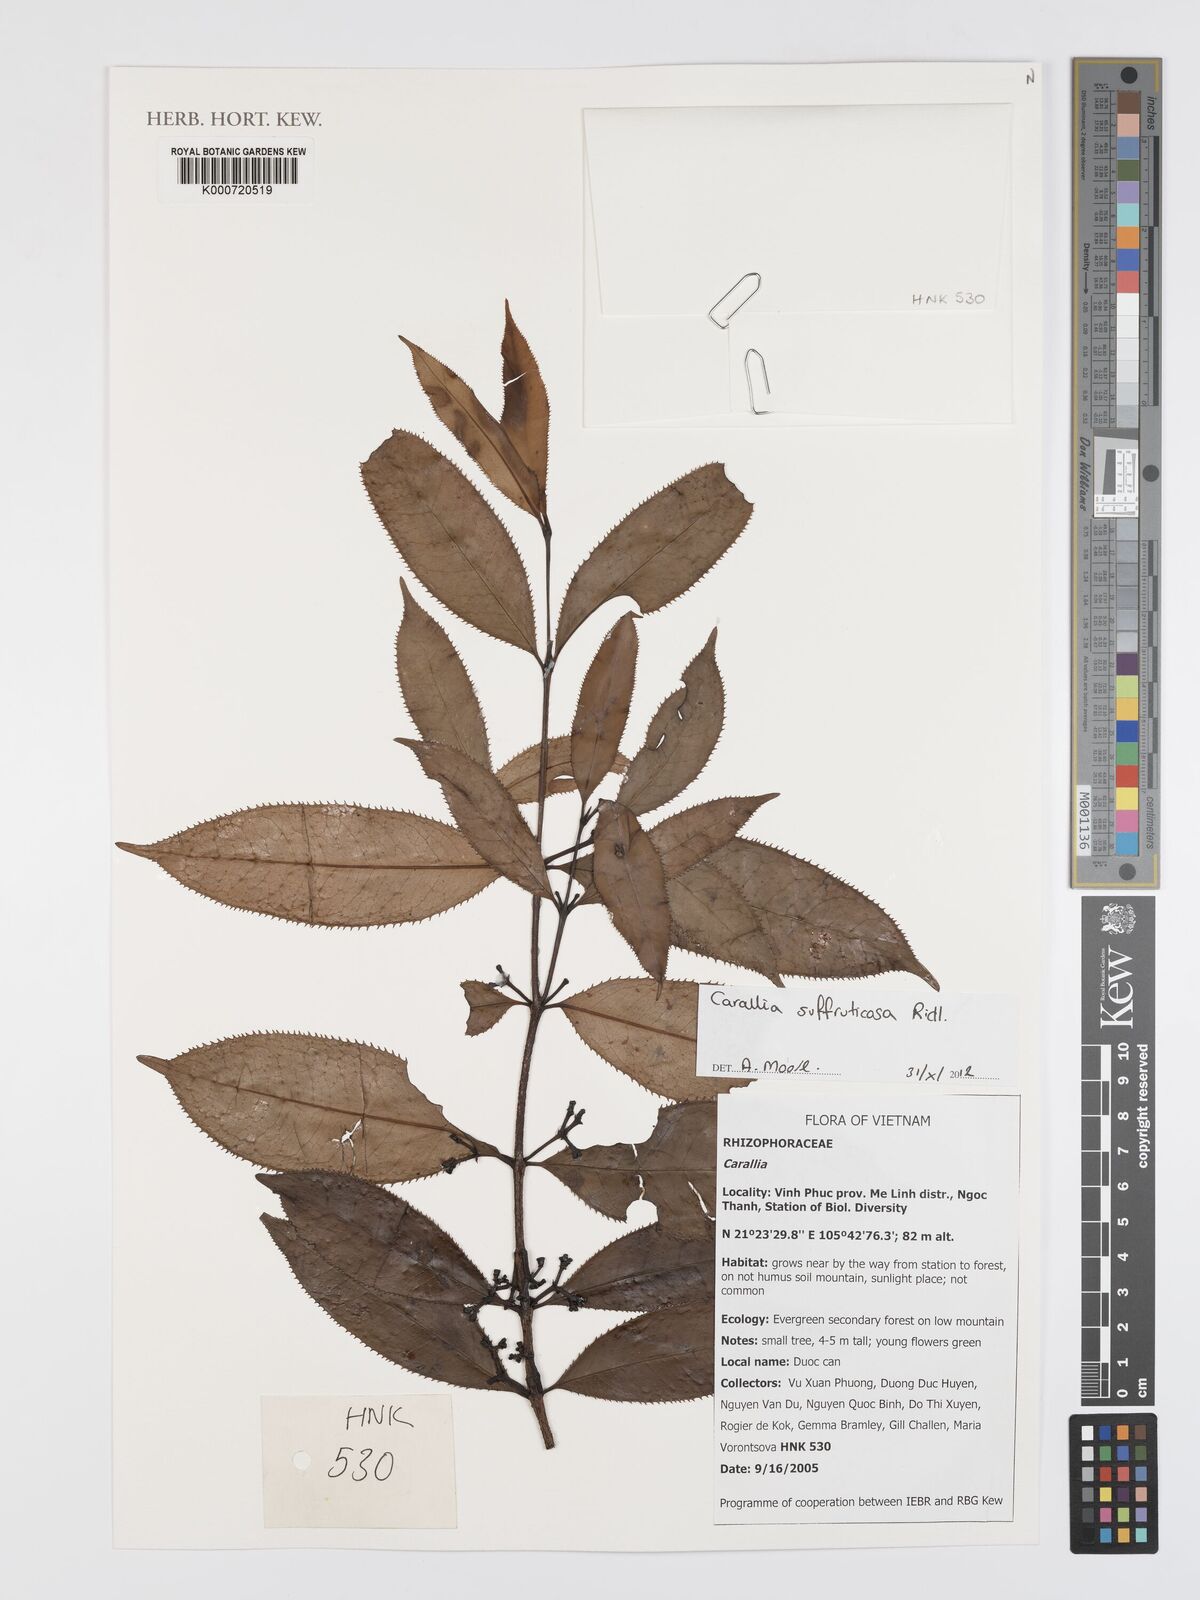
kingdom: Plantae
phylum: Tracheophyta
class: Magnoliopsida
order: Malpighiales
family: Rhizophoraceae
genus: Carallia
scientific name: Carallia suffruticosa
